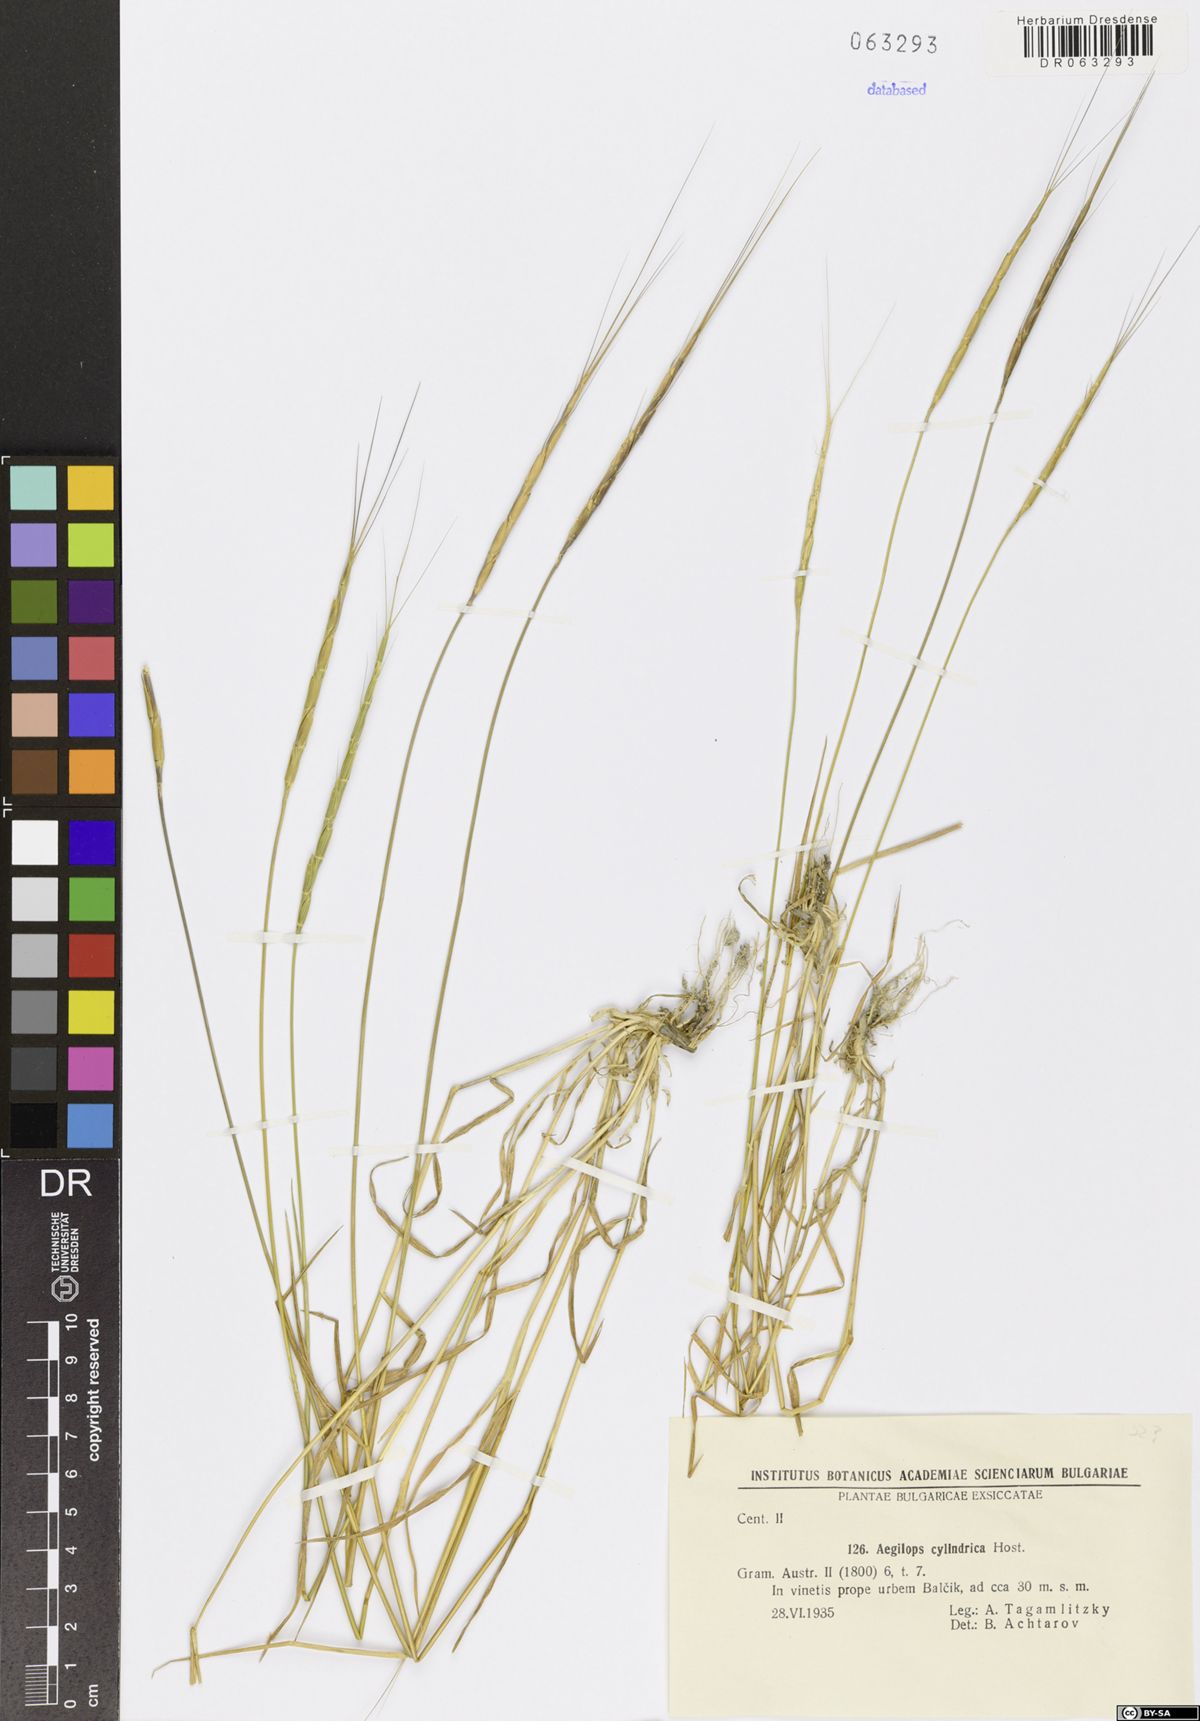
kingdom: Plantae
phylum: Tracheophyta
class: Liliopsida
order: Poales
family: Poaceae
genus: Aegilops
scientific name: Aegilops cylindrica
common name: Jointed goatgrass
